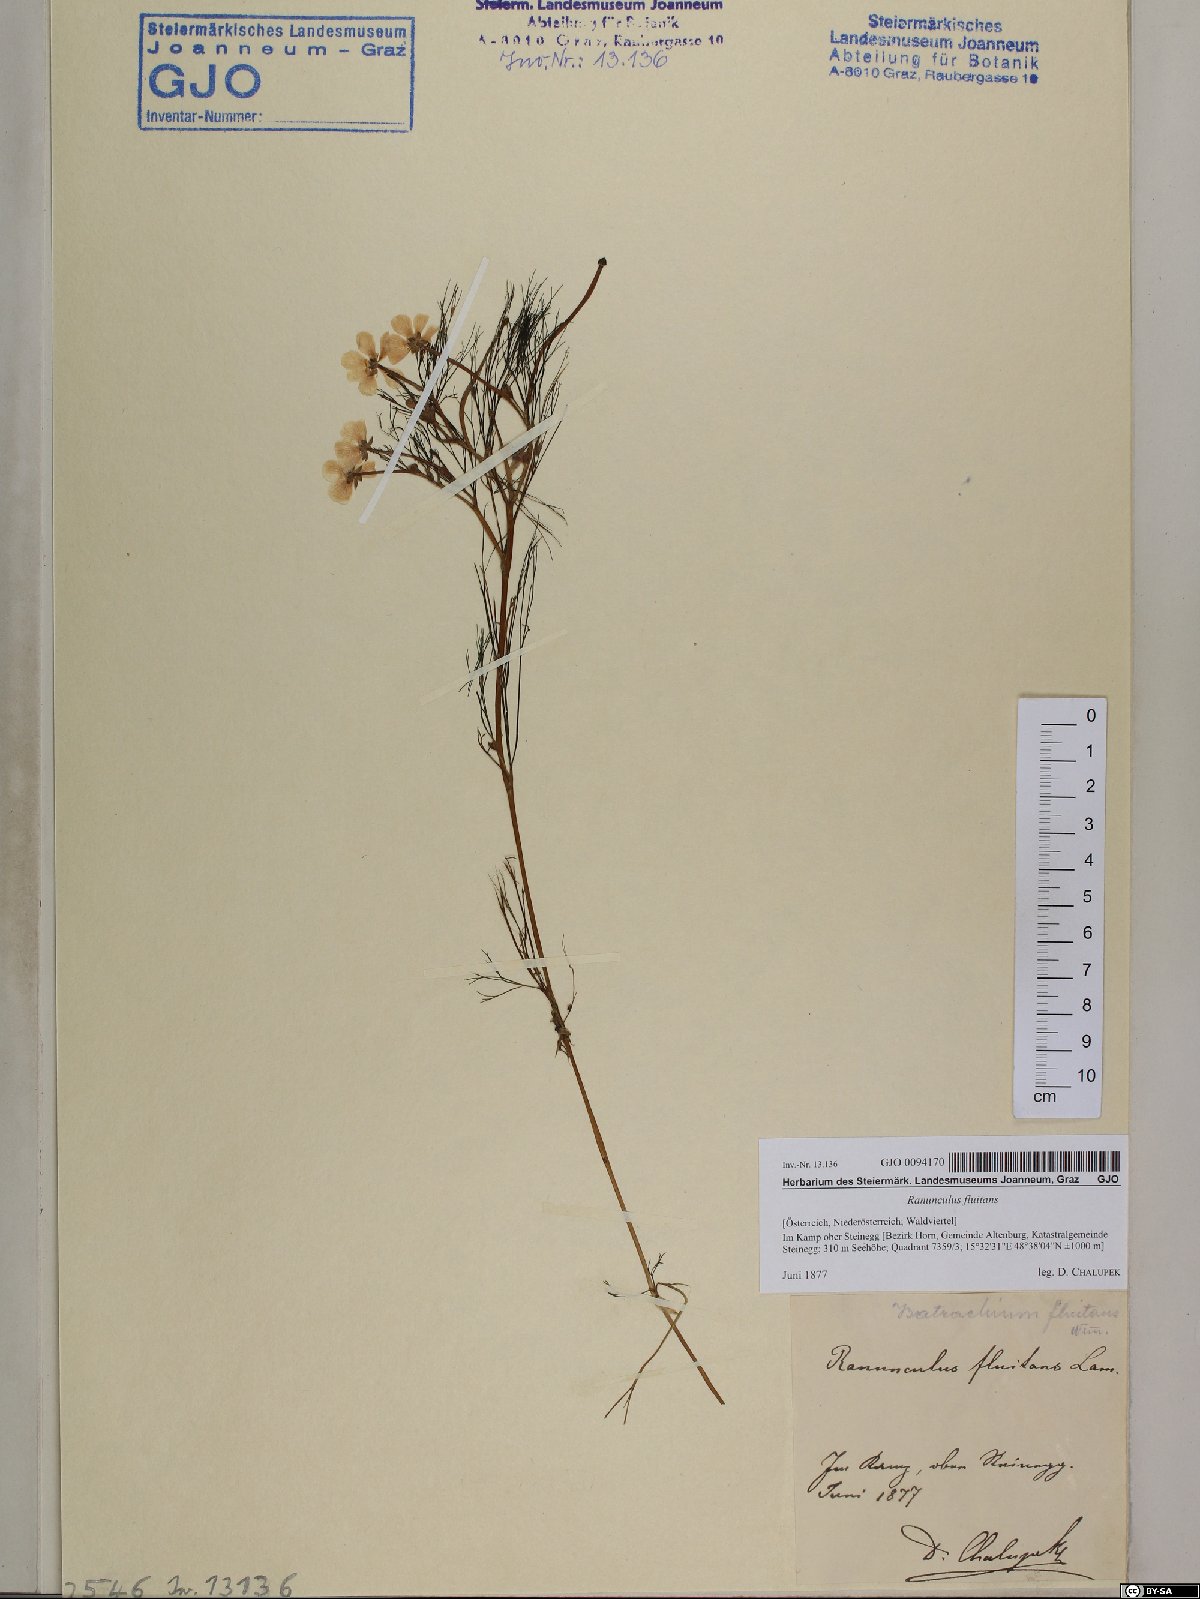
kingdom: Plantae
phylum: Tracheophyta
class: Magnoliopsida
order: Ranunculales
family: Ranunculaceae
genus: Ranunculus
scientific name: Ranunculus fluitans
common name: River water-crowfoot
